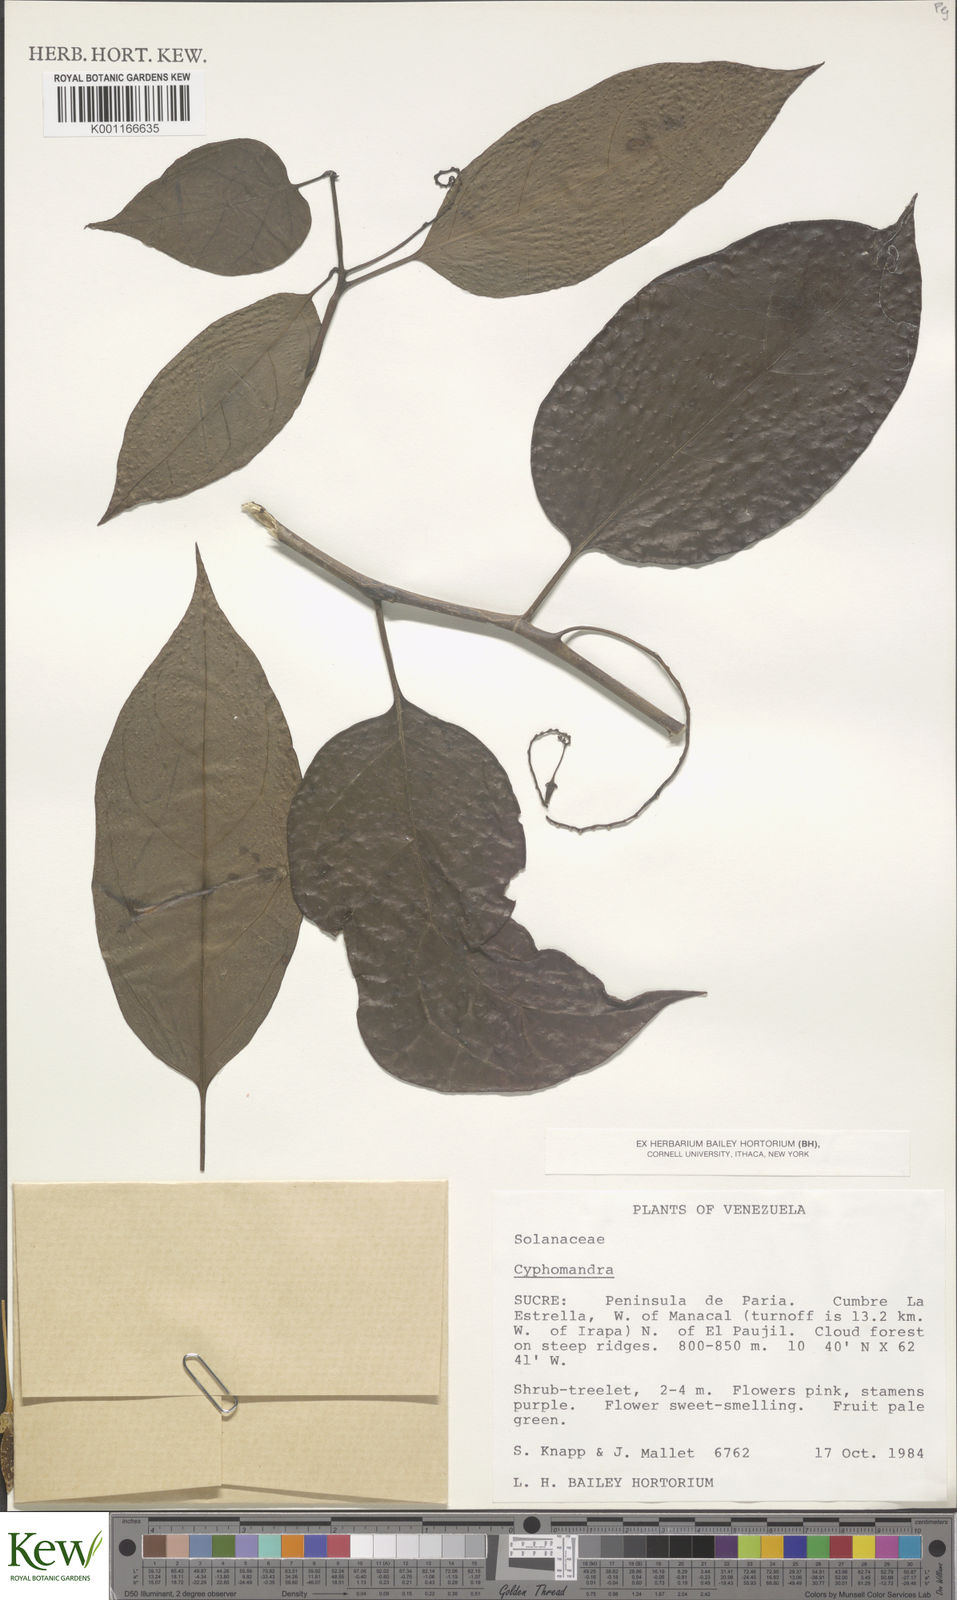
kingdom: Plantae
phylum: Tracheophyta
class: Magnoliopsida
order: Solanales
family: Solanaceae
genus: Solanum
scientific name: Solanum
